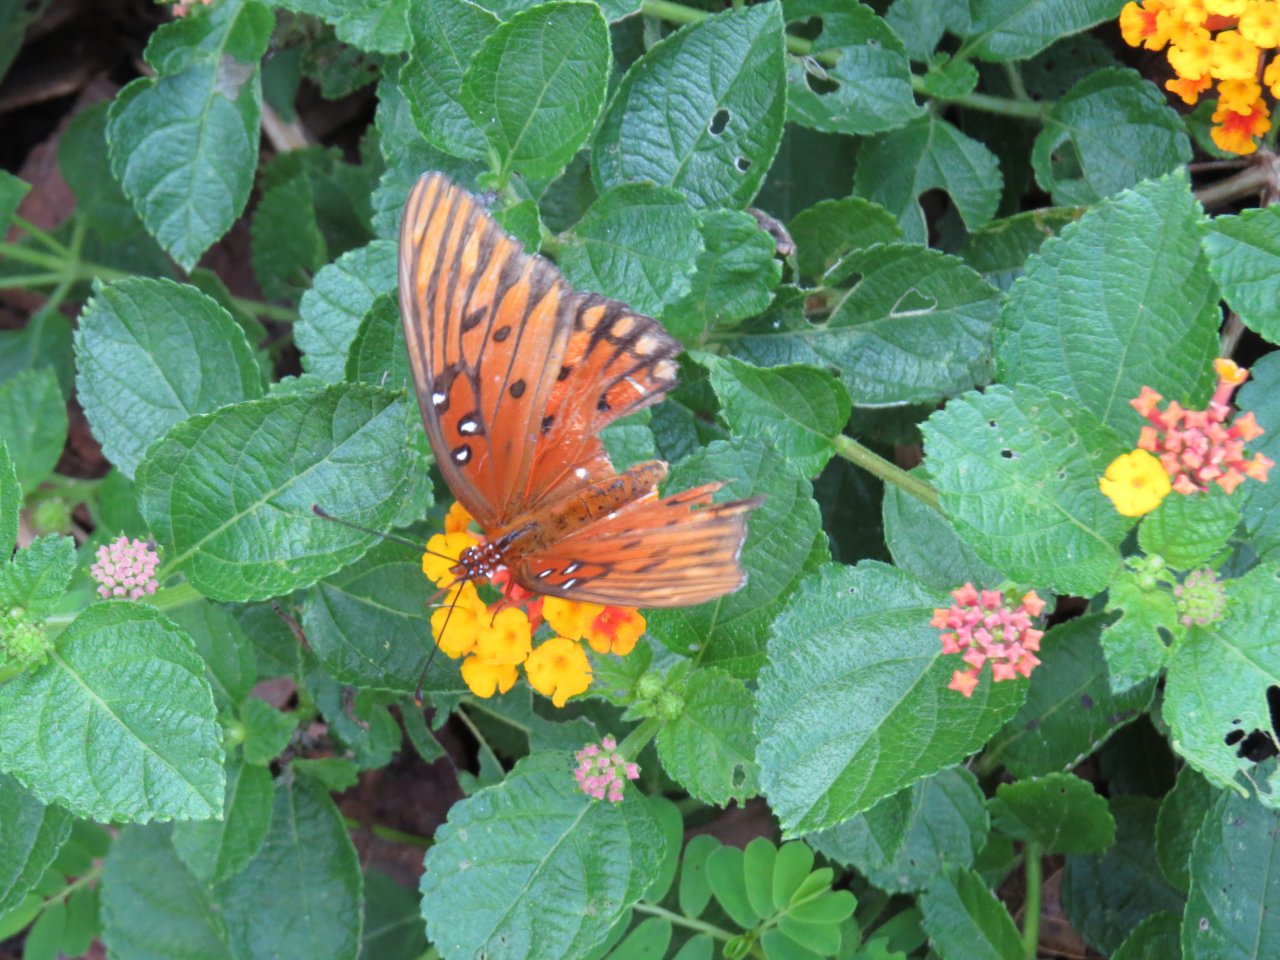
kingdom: Animalia
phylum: Arthropoda
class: Insecta
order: Lepidoptera
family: Nymphalidae
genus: Dione
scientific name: Dione vanillae
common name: Gulf Fritillary
